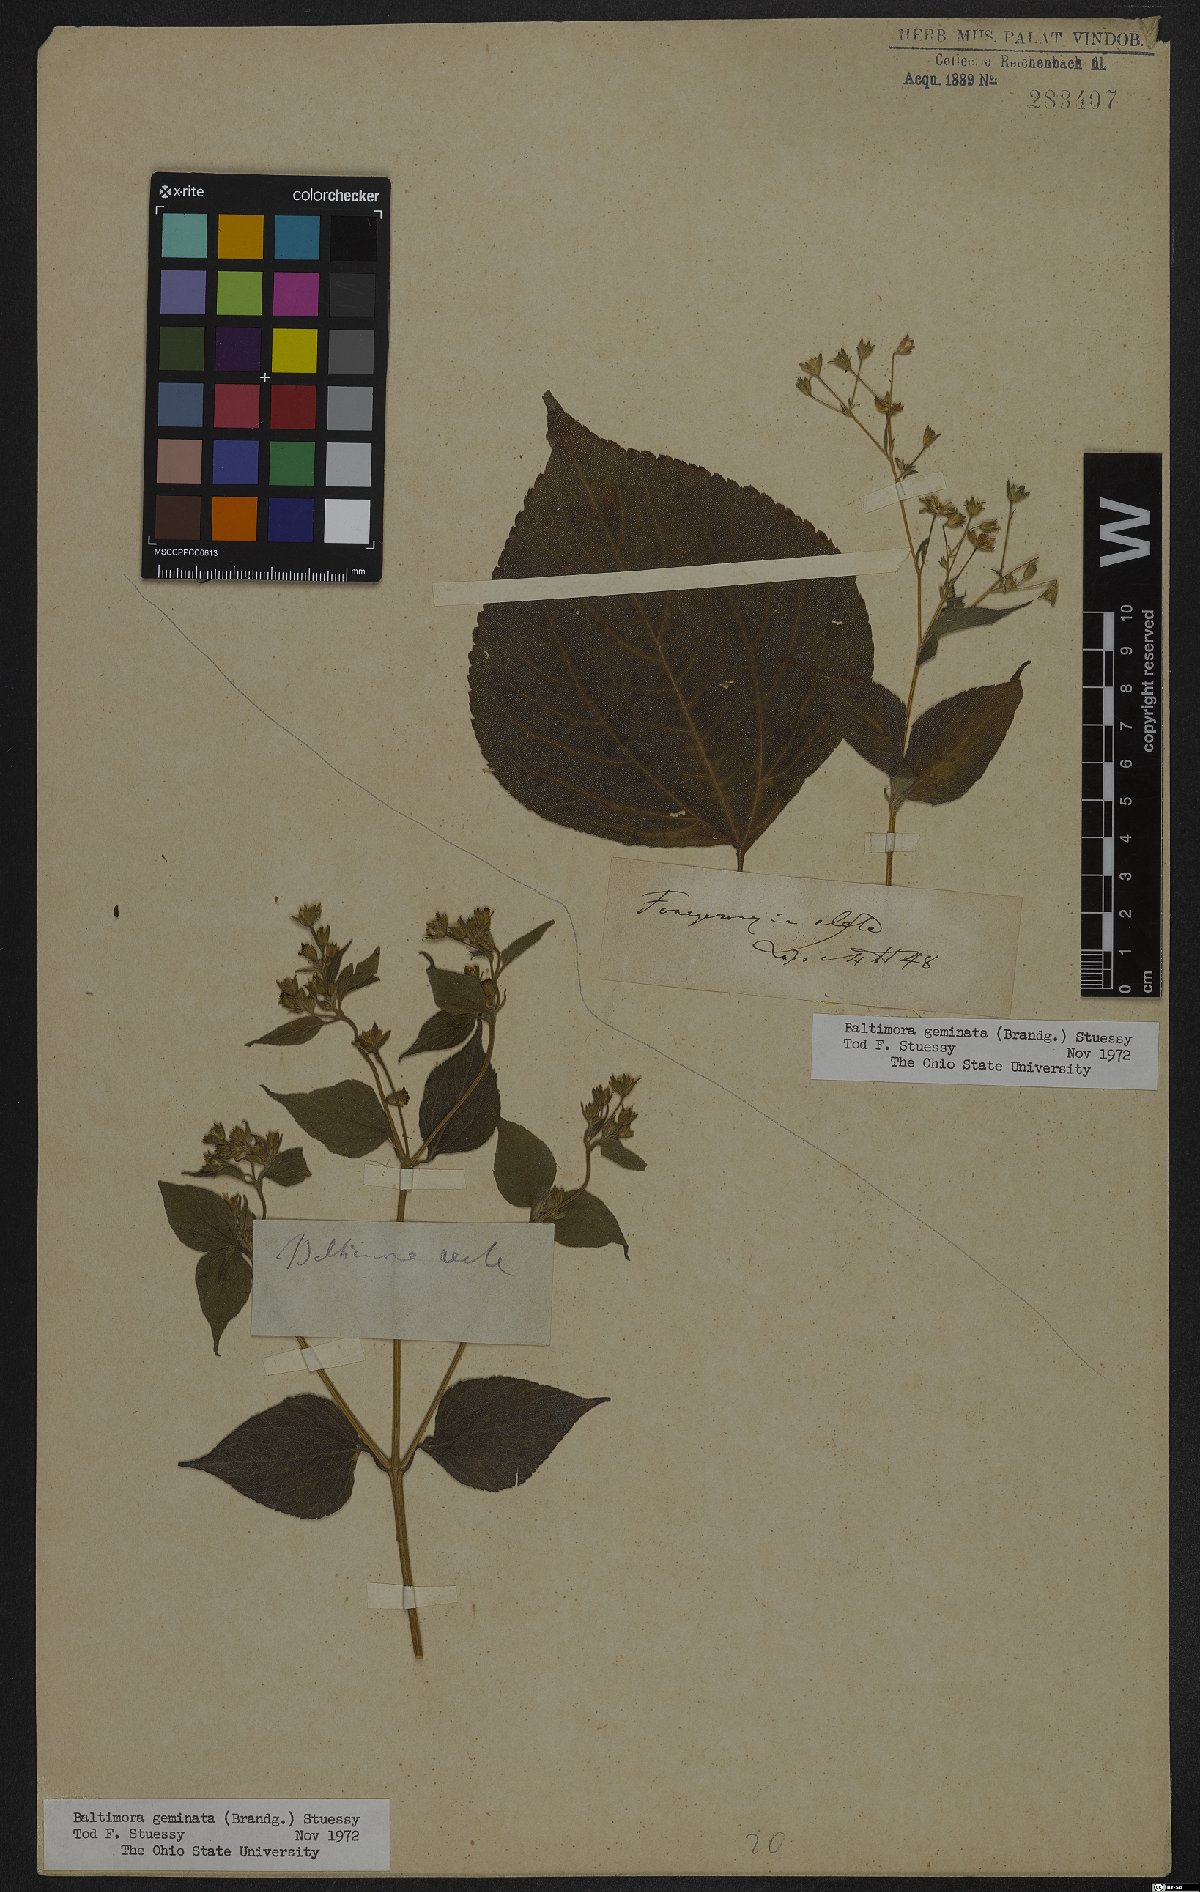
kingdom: Plantae
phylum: Tracheophyta
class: Magnoliopsida
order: Asterales
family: Asteraceae
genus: Baltimora
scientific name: Baltimora geminata
